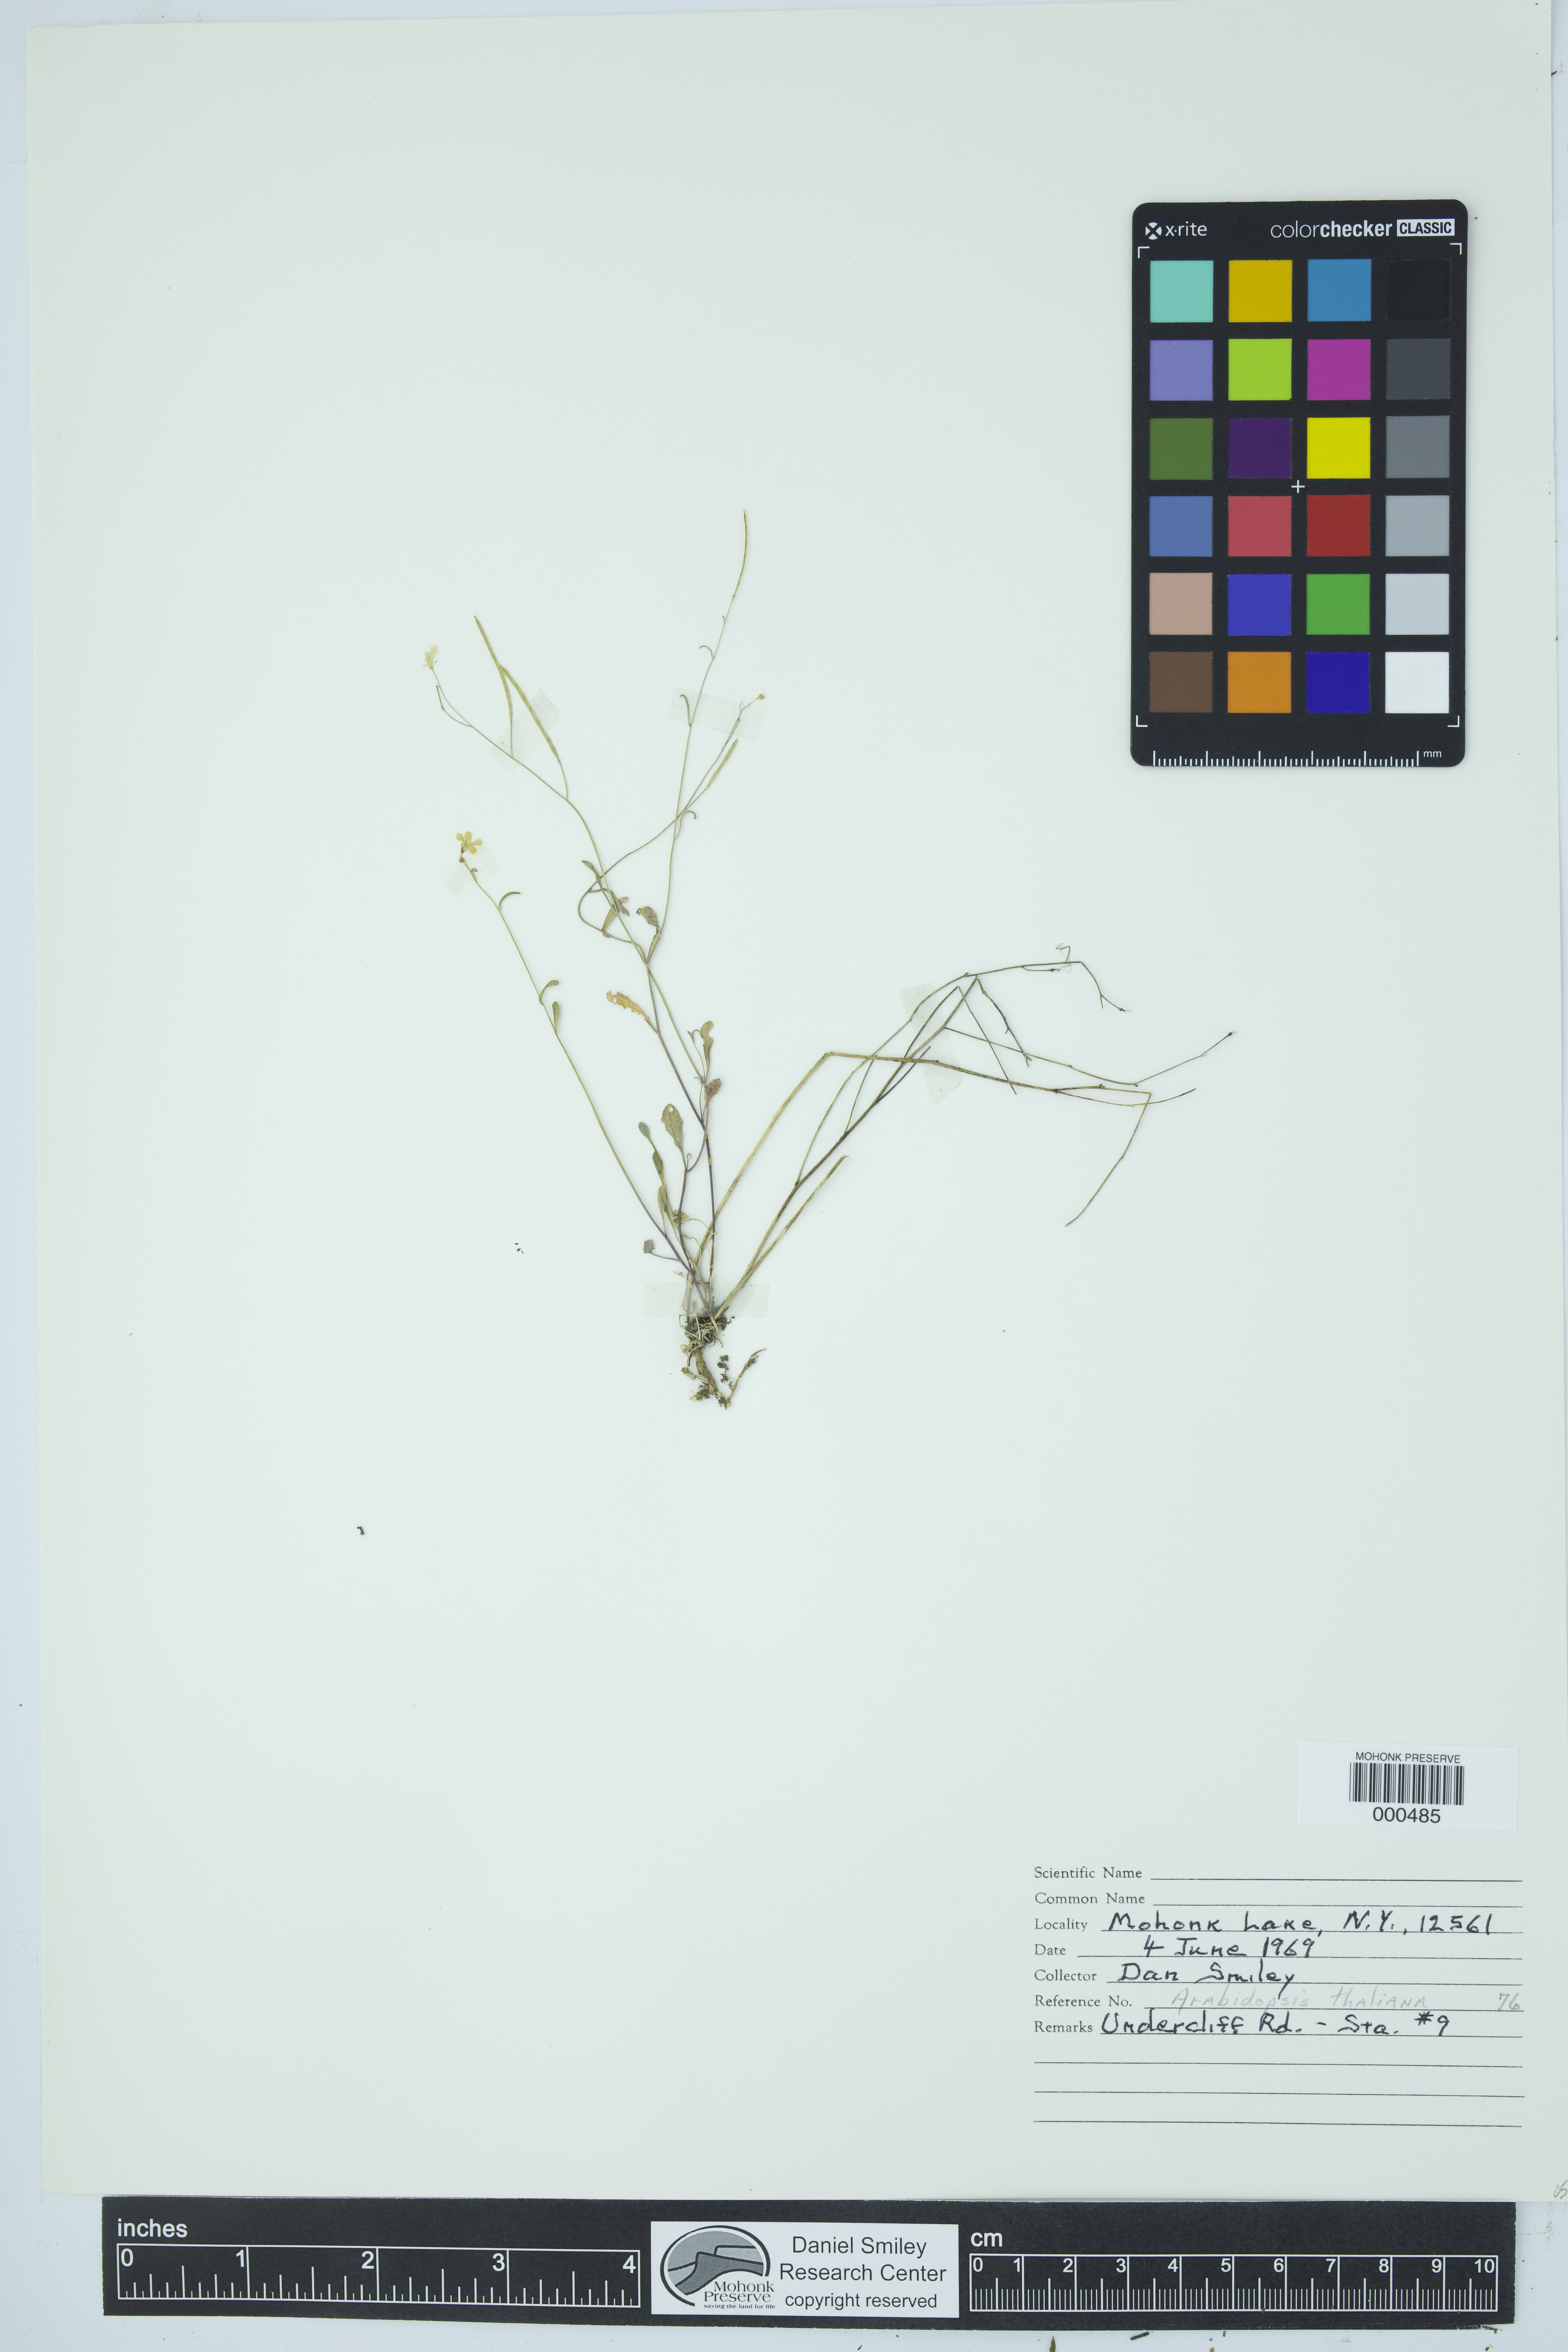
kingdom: Plantae
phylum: Tracheophyta
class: Magnoliopsida
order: Brassicales
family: Brassicaceae
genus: Arabidopsis
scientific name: Arabidopsis thaliana
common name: Thale cress
